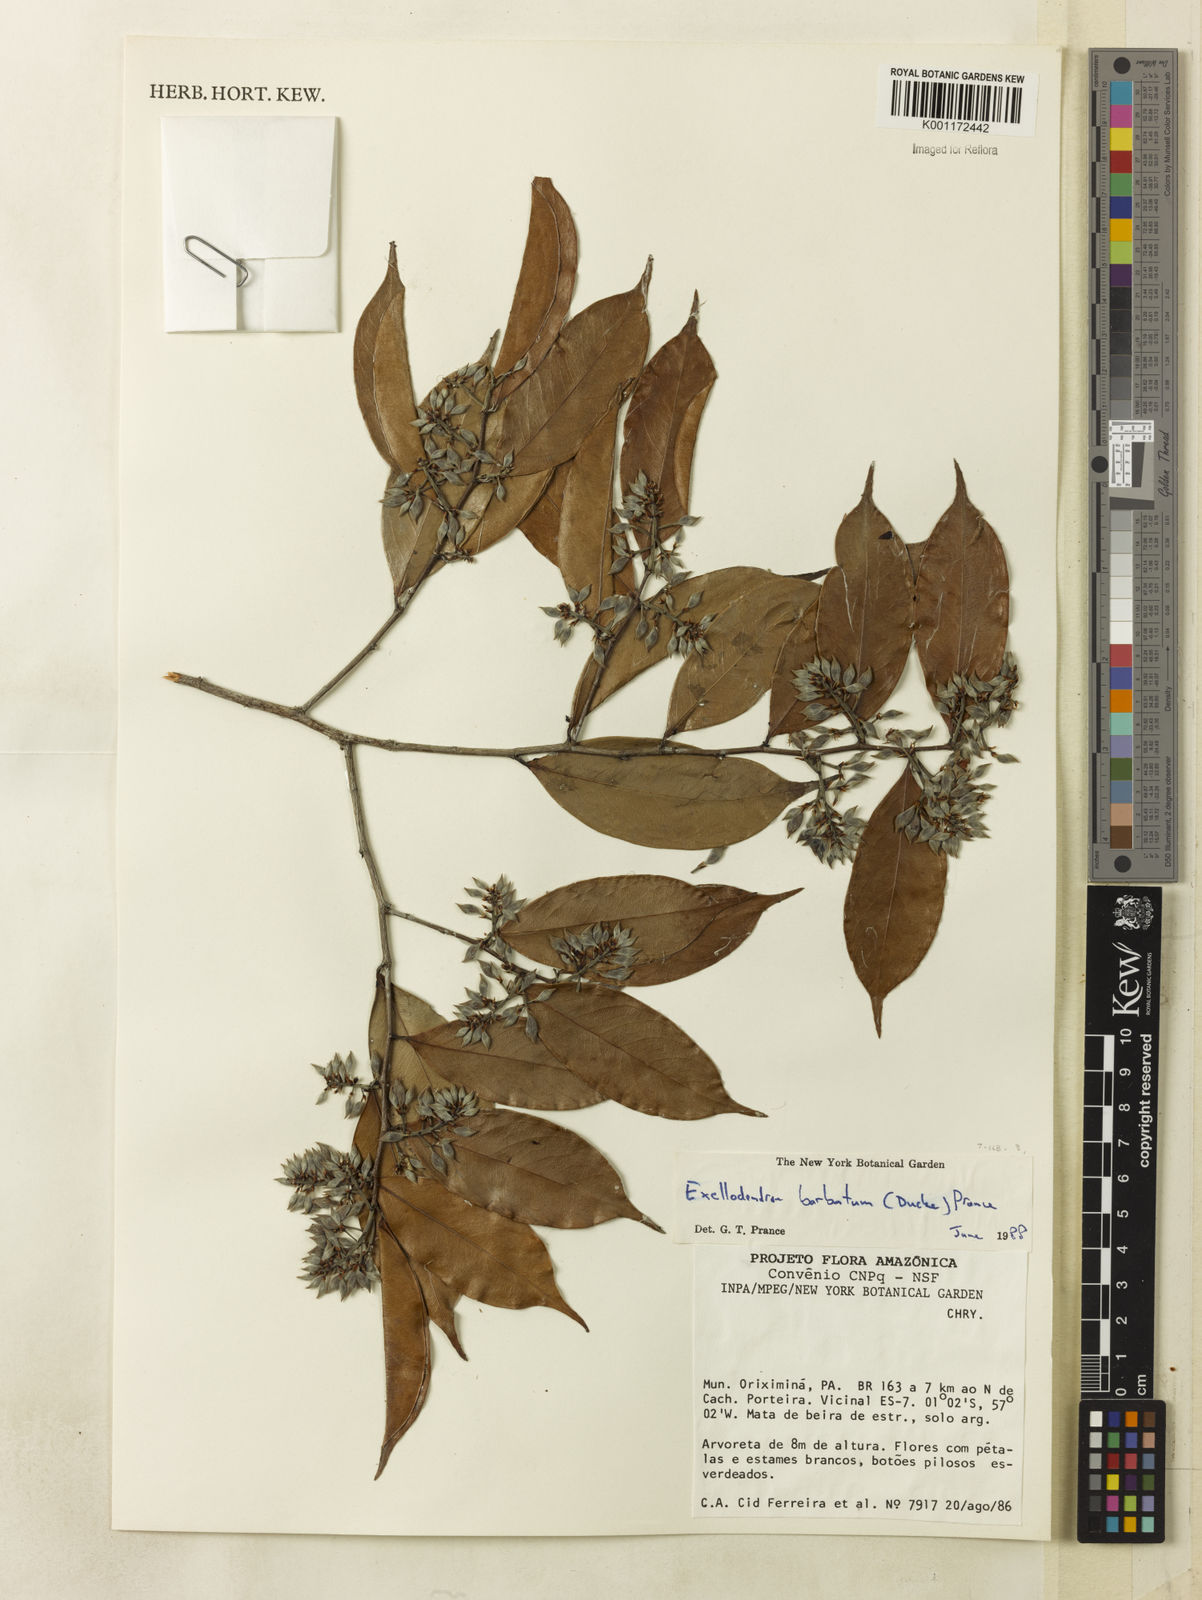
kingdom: Plantae
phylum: Tracheophyta
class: Magnoliopsida
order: Malpighiales
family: Chrysobalanaceae
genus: Atuna
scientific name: Atuna
